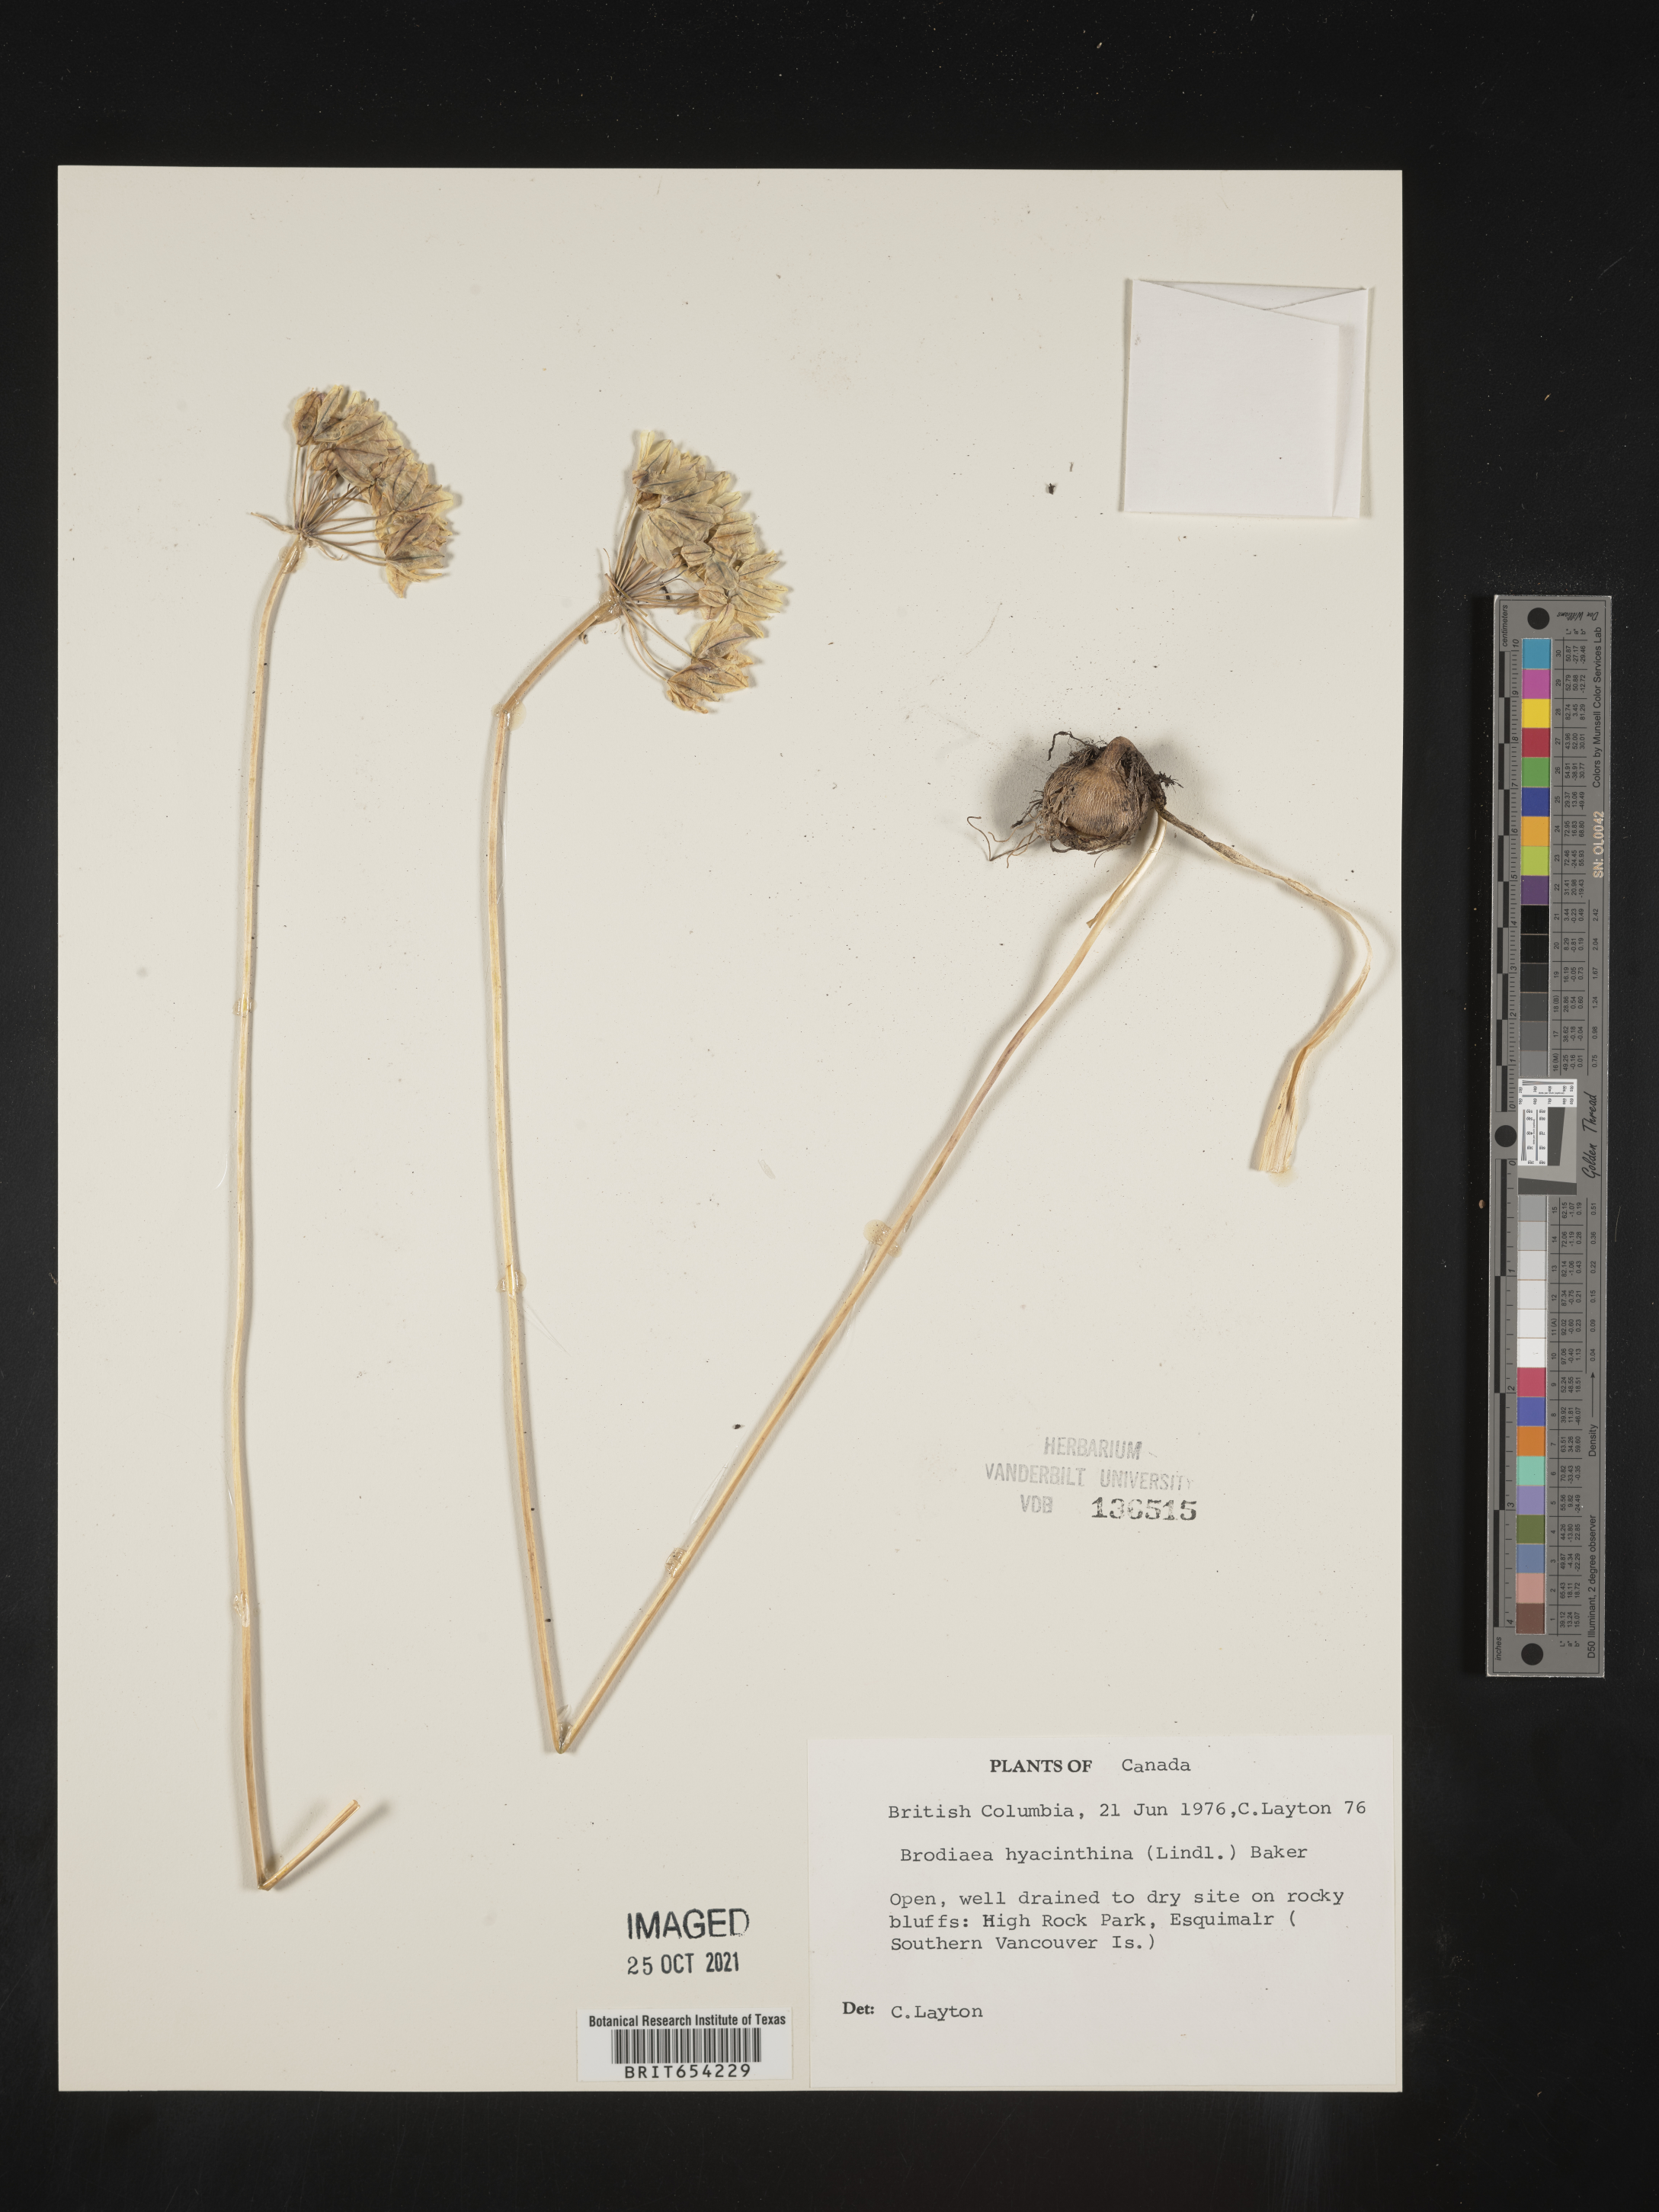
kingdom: Plantae
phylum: Tracheophyta
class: Liliopsida
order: Asparagales
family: Asparagaceae
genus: Triteleia
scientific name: Triteleia hyacinthina
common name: White brodiaea
